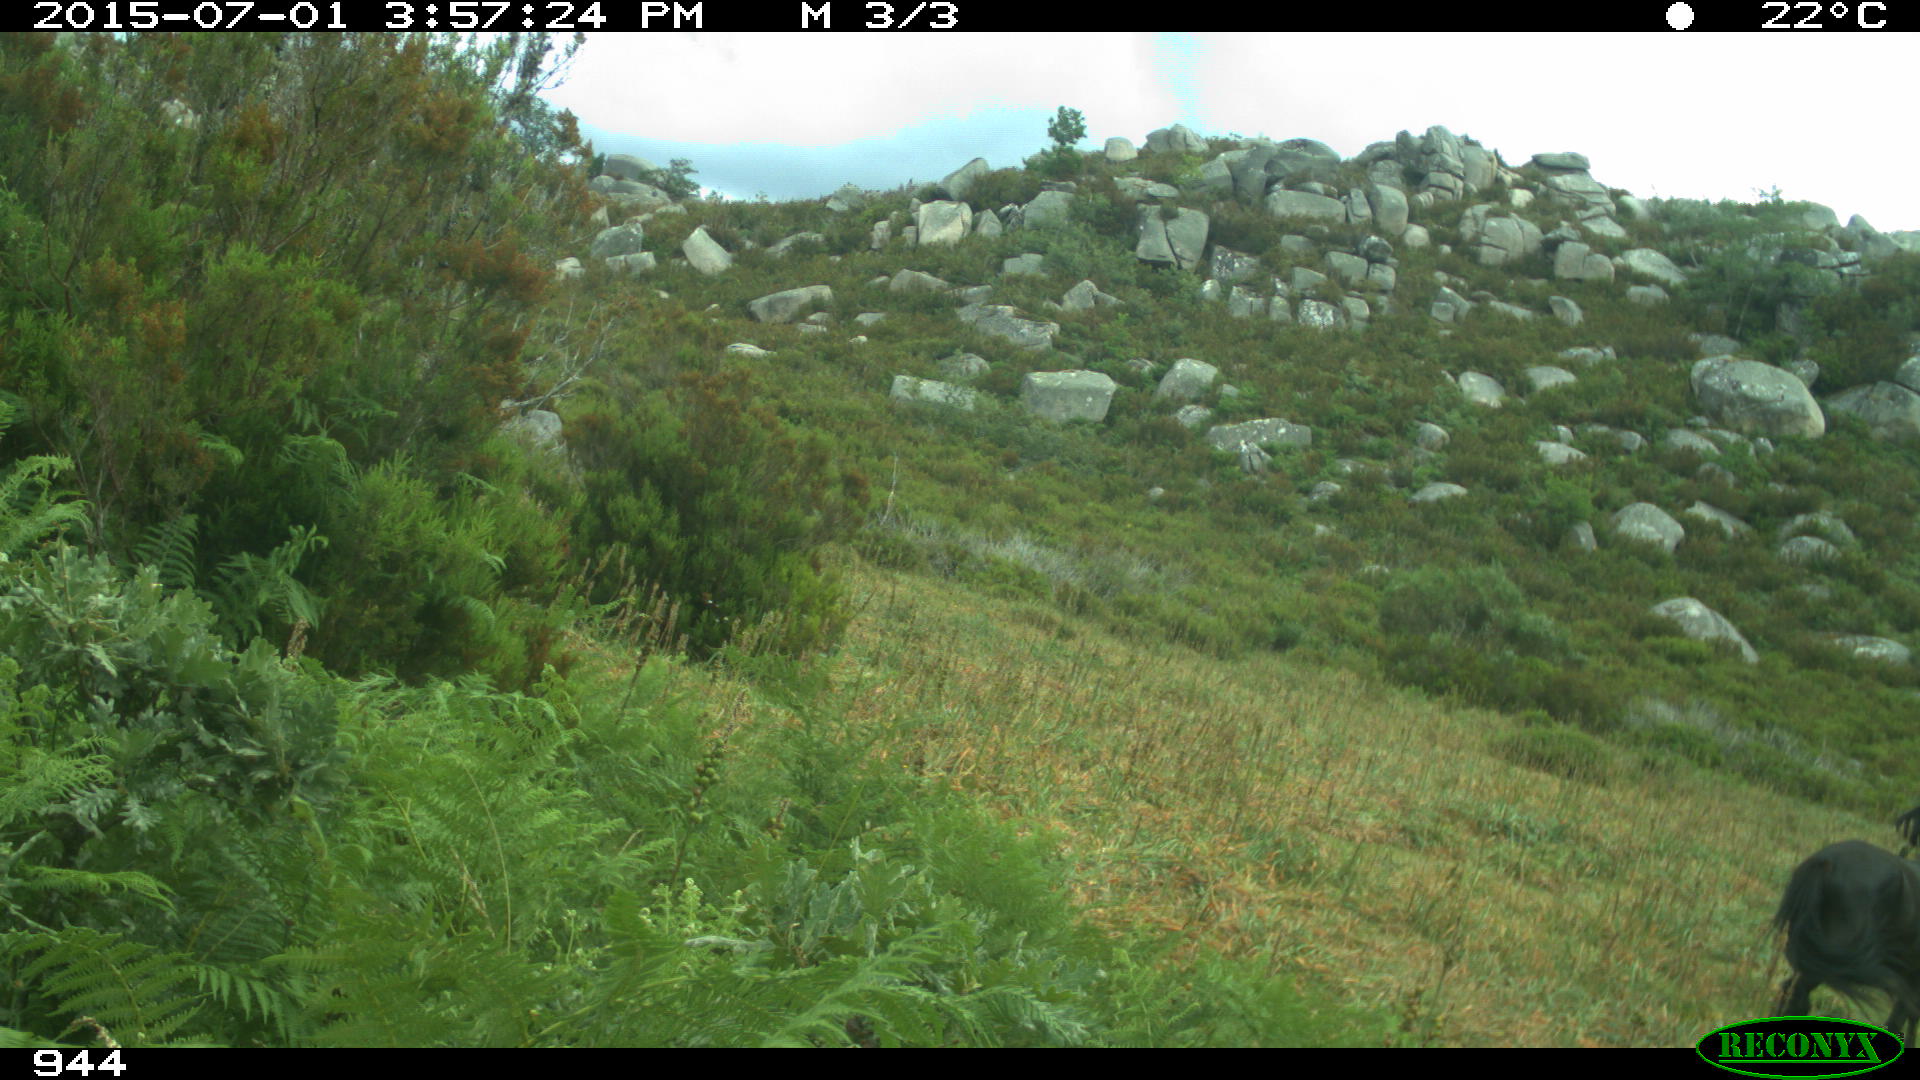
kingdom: Animalia
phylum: Chordata
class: Mammalia
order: Perissodactyla
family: Equidae
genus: Equus
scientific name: Equus caballus
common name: Horse
